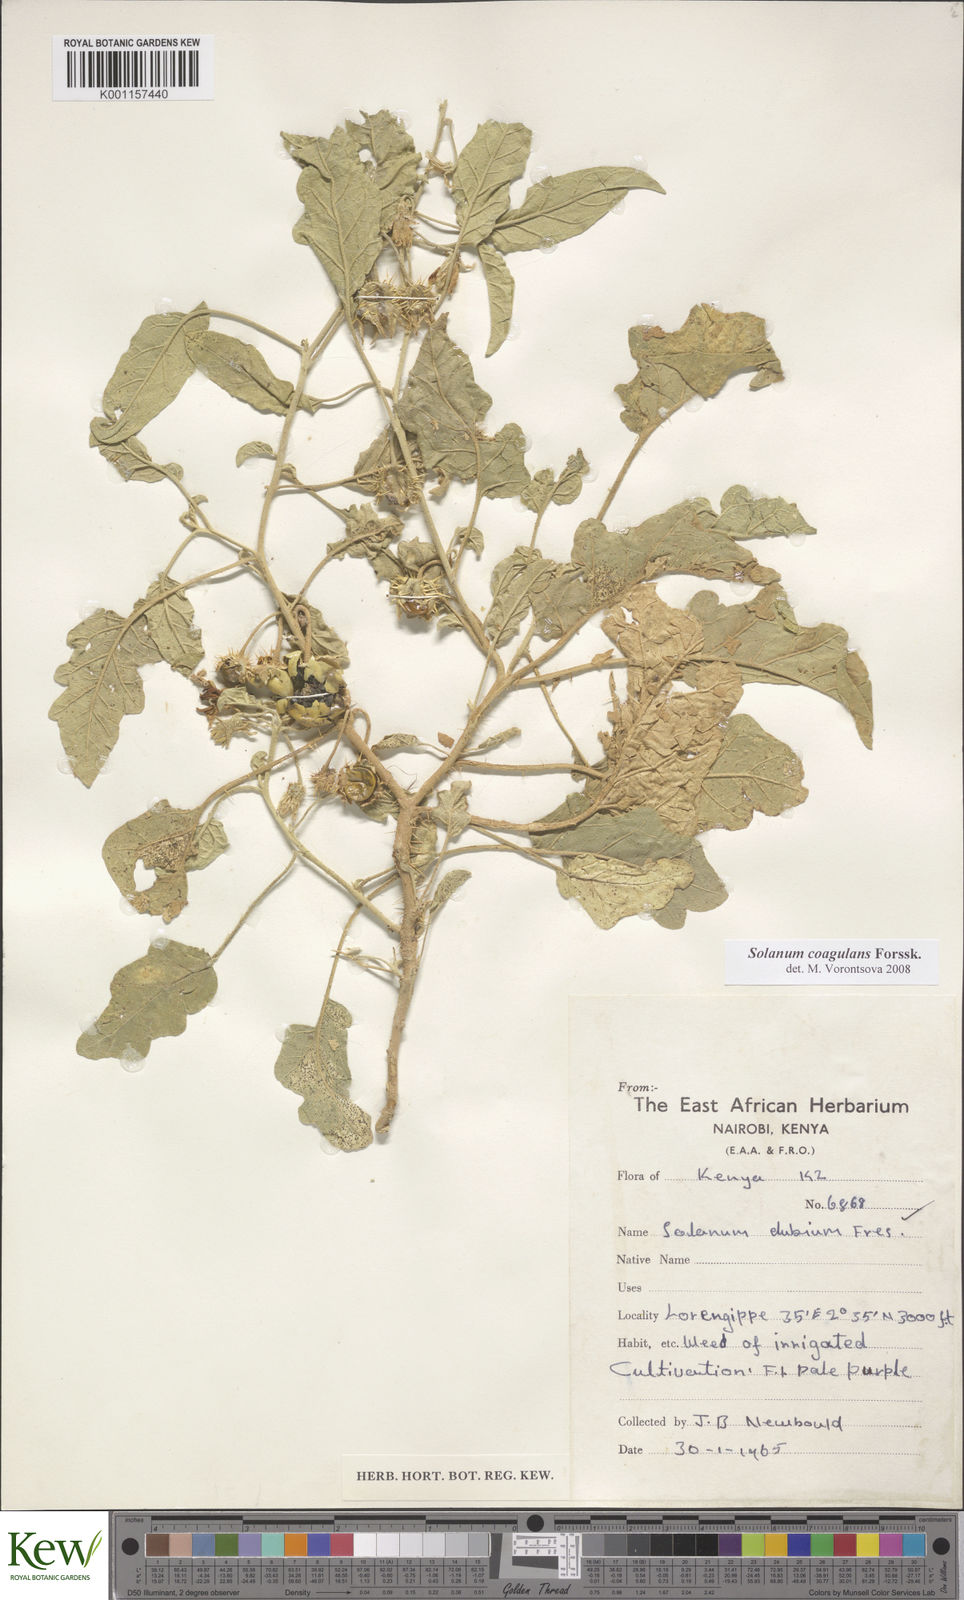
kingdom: Plantae
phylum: Tracheophyta
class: Magnoliopsida
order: Solanales
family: Solanaceae
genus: Solanum
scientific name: Solanum coagulans
